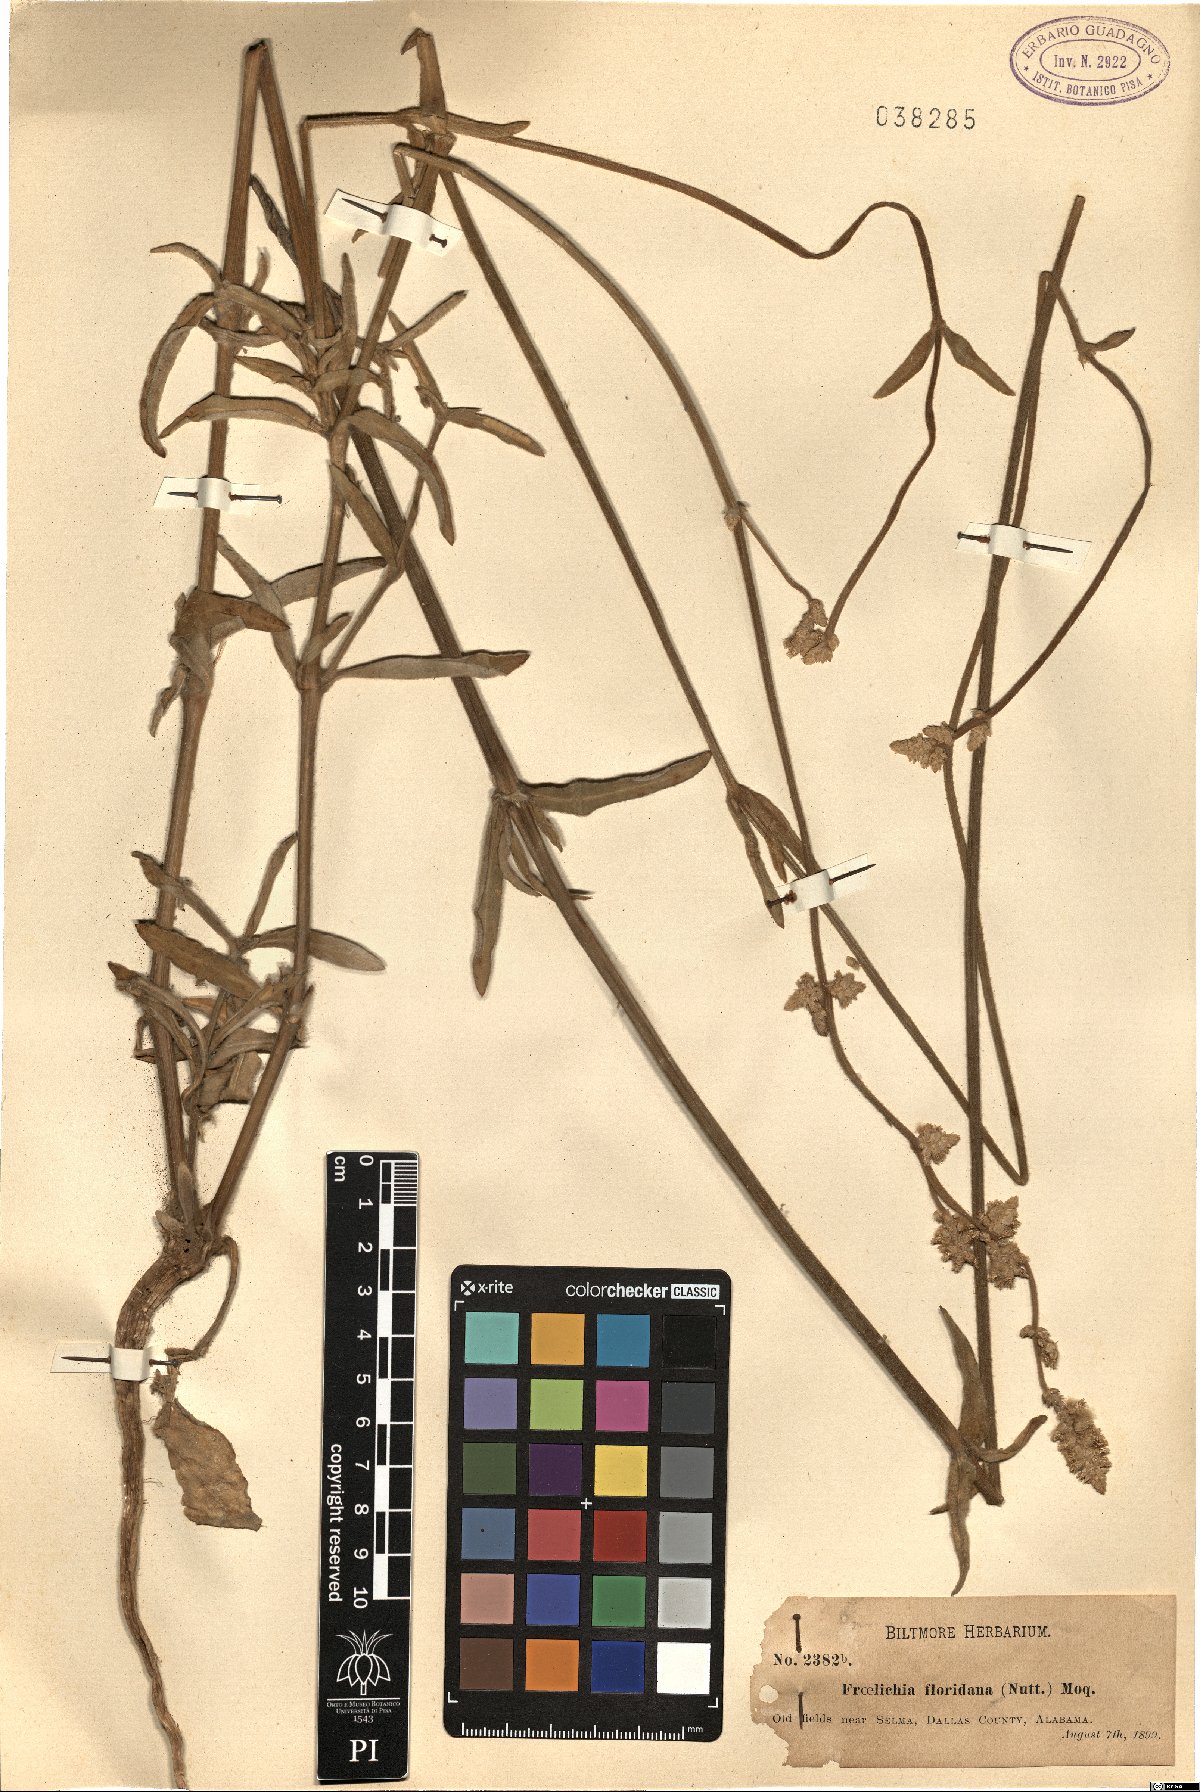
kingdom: Plantae
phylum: Tracheophyta
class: Magnoliopsida
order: Caryophyllales
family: Amaranthaceae
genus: Froelichia
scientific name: Froelichia floridana
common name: Florida snake-cotton
